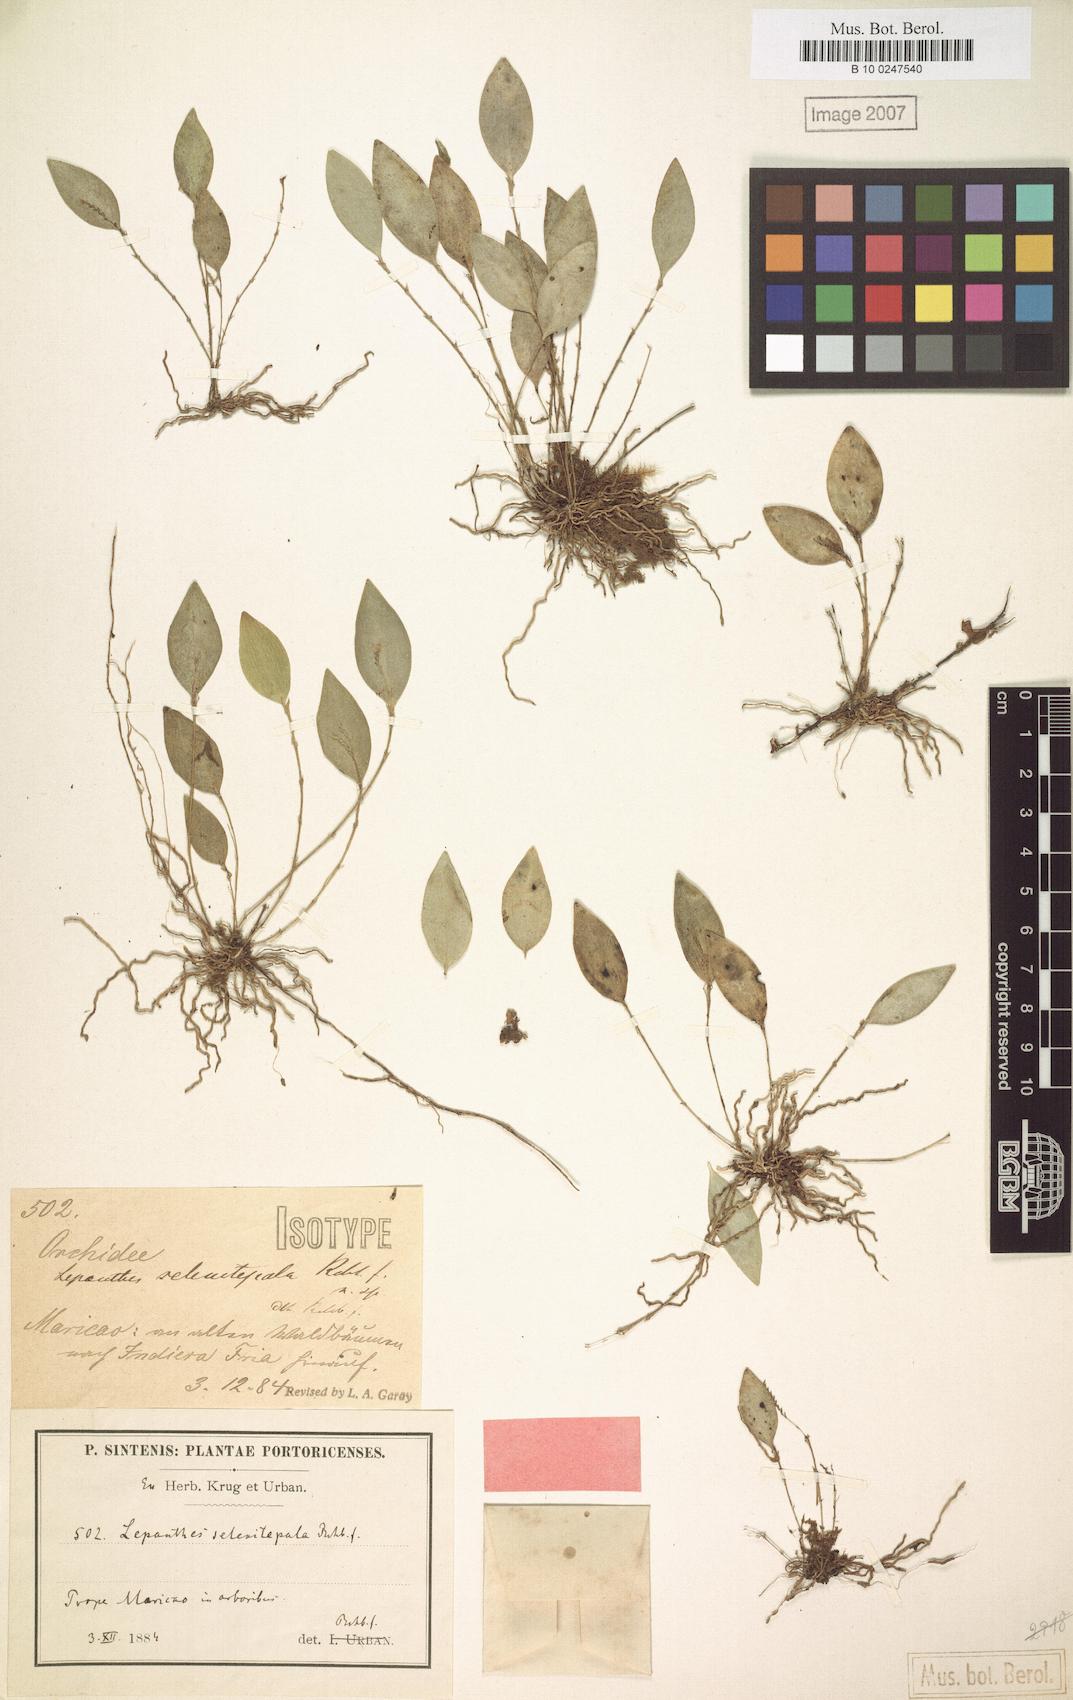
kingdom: Plantae
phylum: Tracheophyta
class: Liliopsida
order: Asparagales
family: Orchidaceae
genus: Lepanthes
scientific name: Lepanthes
